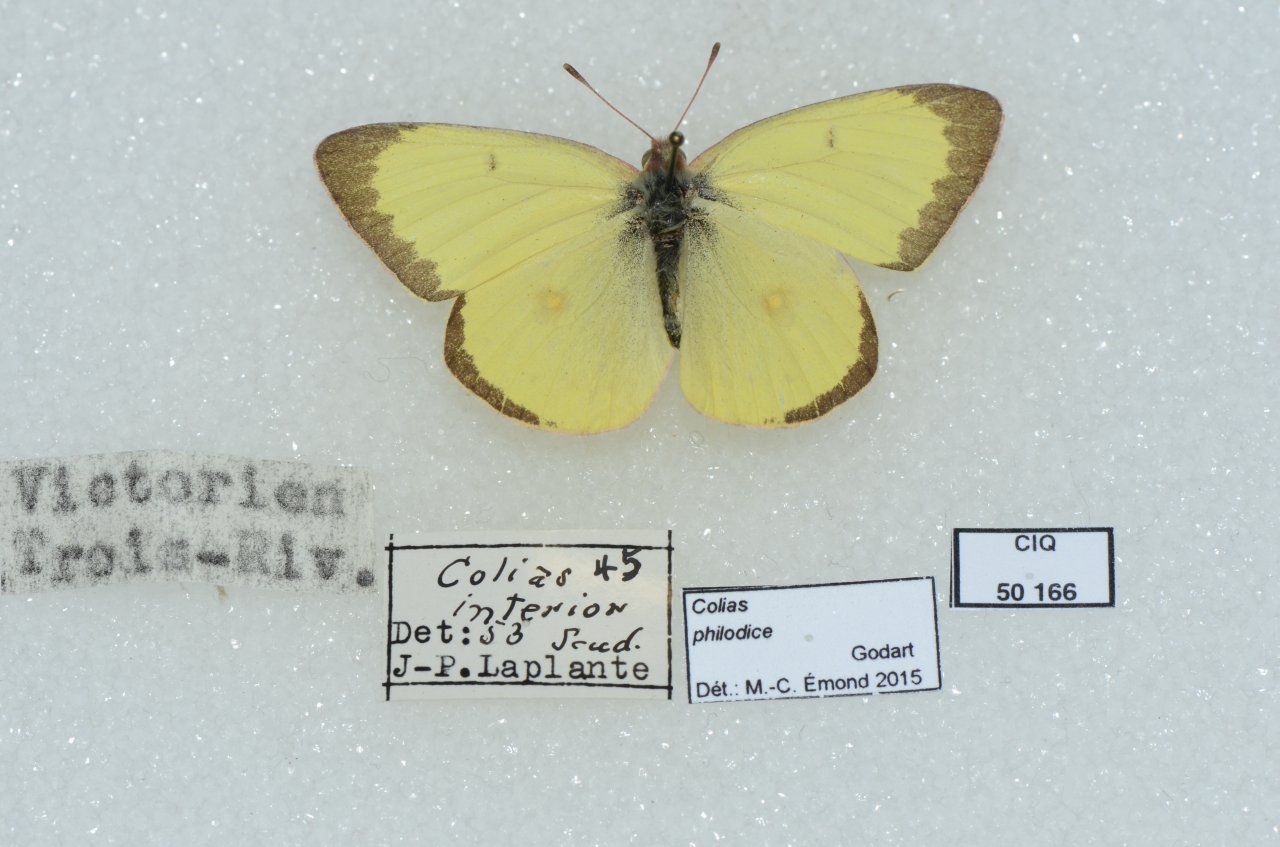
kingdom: Animalia
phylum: Arthropoda
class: Insecta
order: Lepidoptera
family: Pieridae
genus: Colias
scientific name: Colias philodice
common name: Clouded Sulphur
